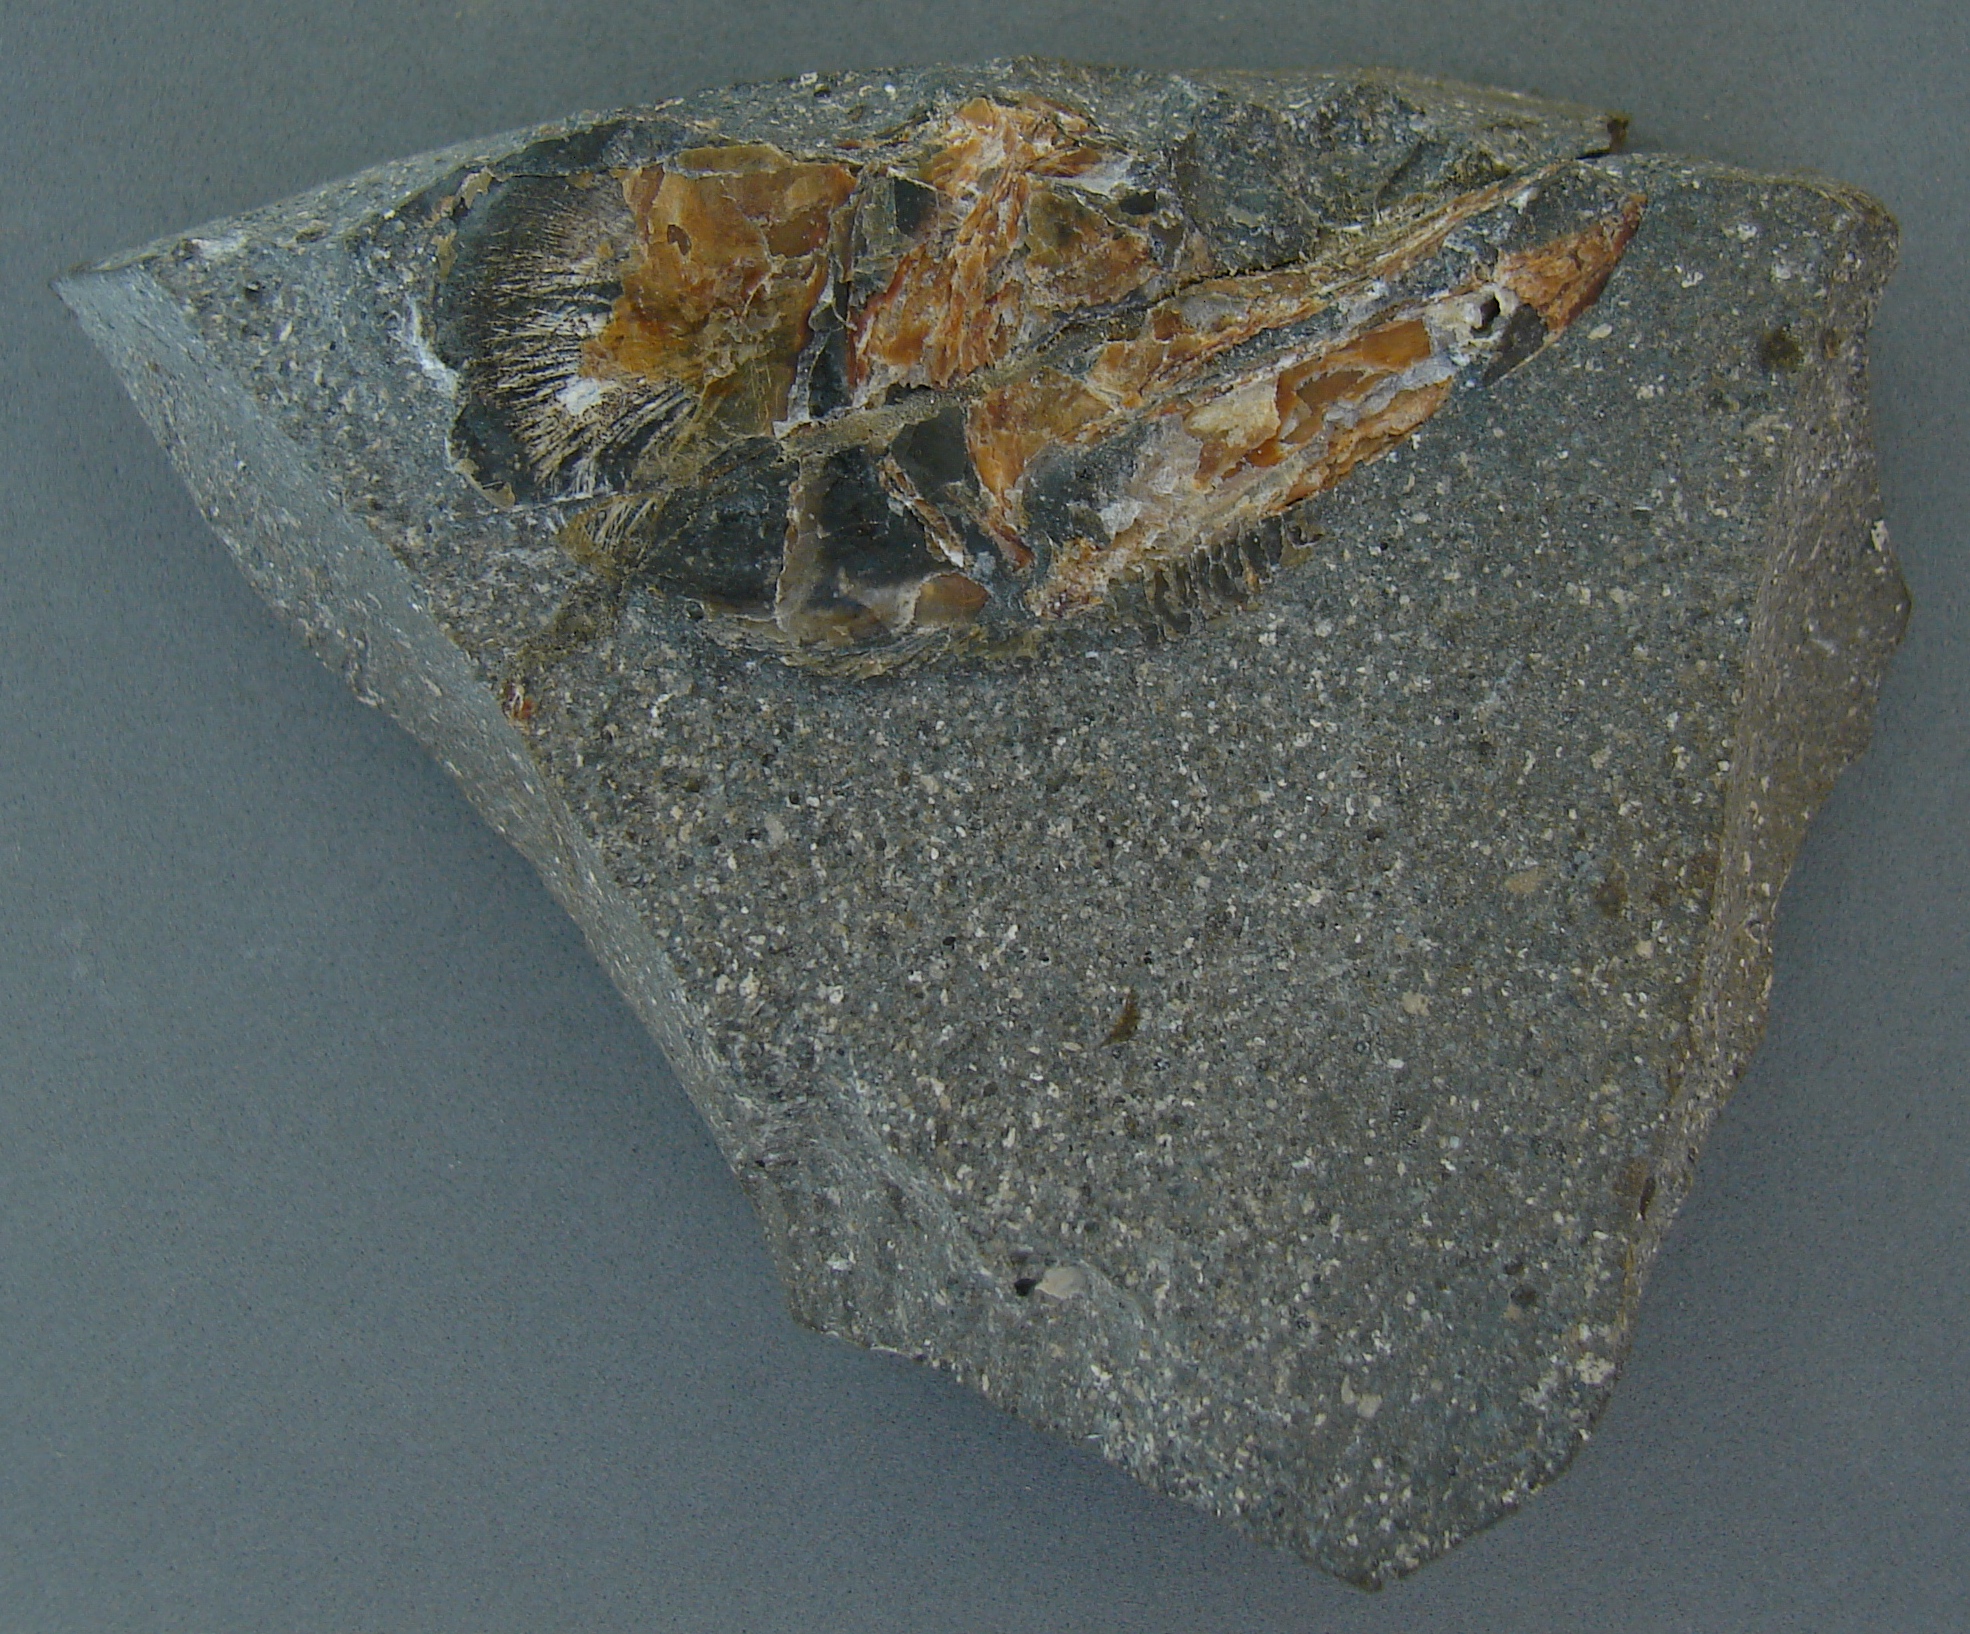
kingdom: Animalia
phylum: Chordata
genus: Haasichthys
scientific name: Haasichthys
